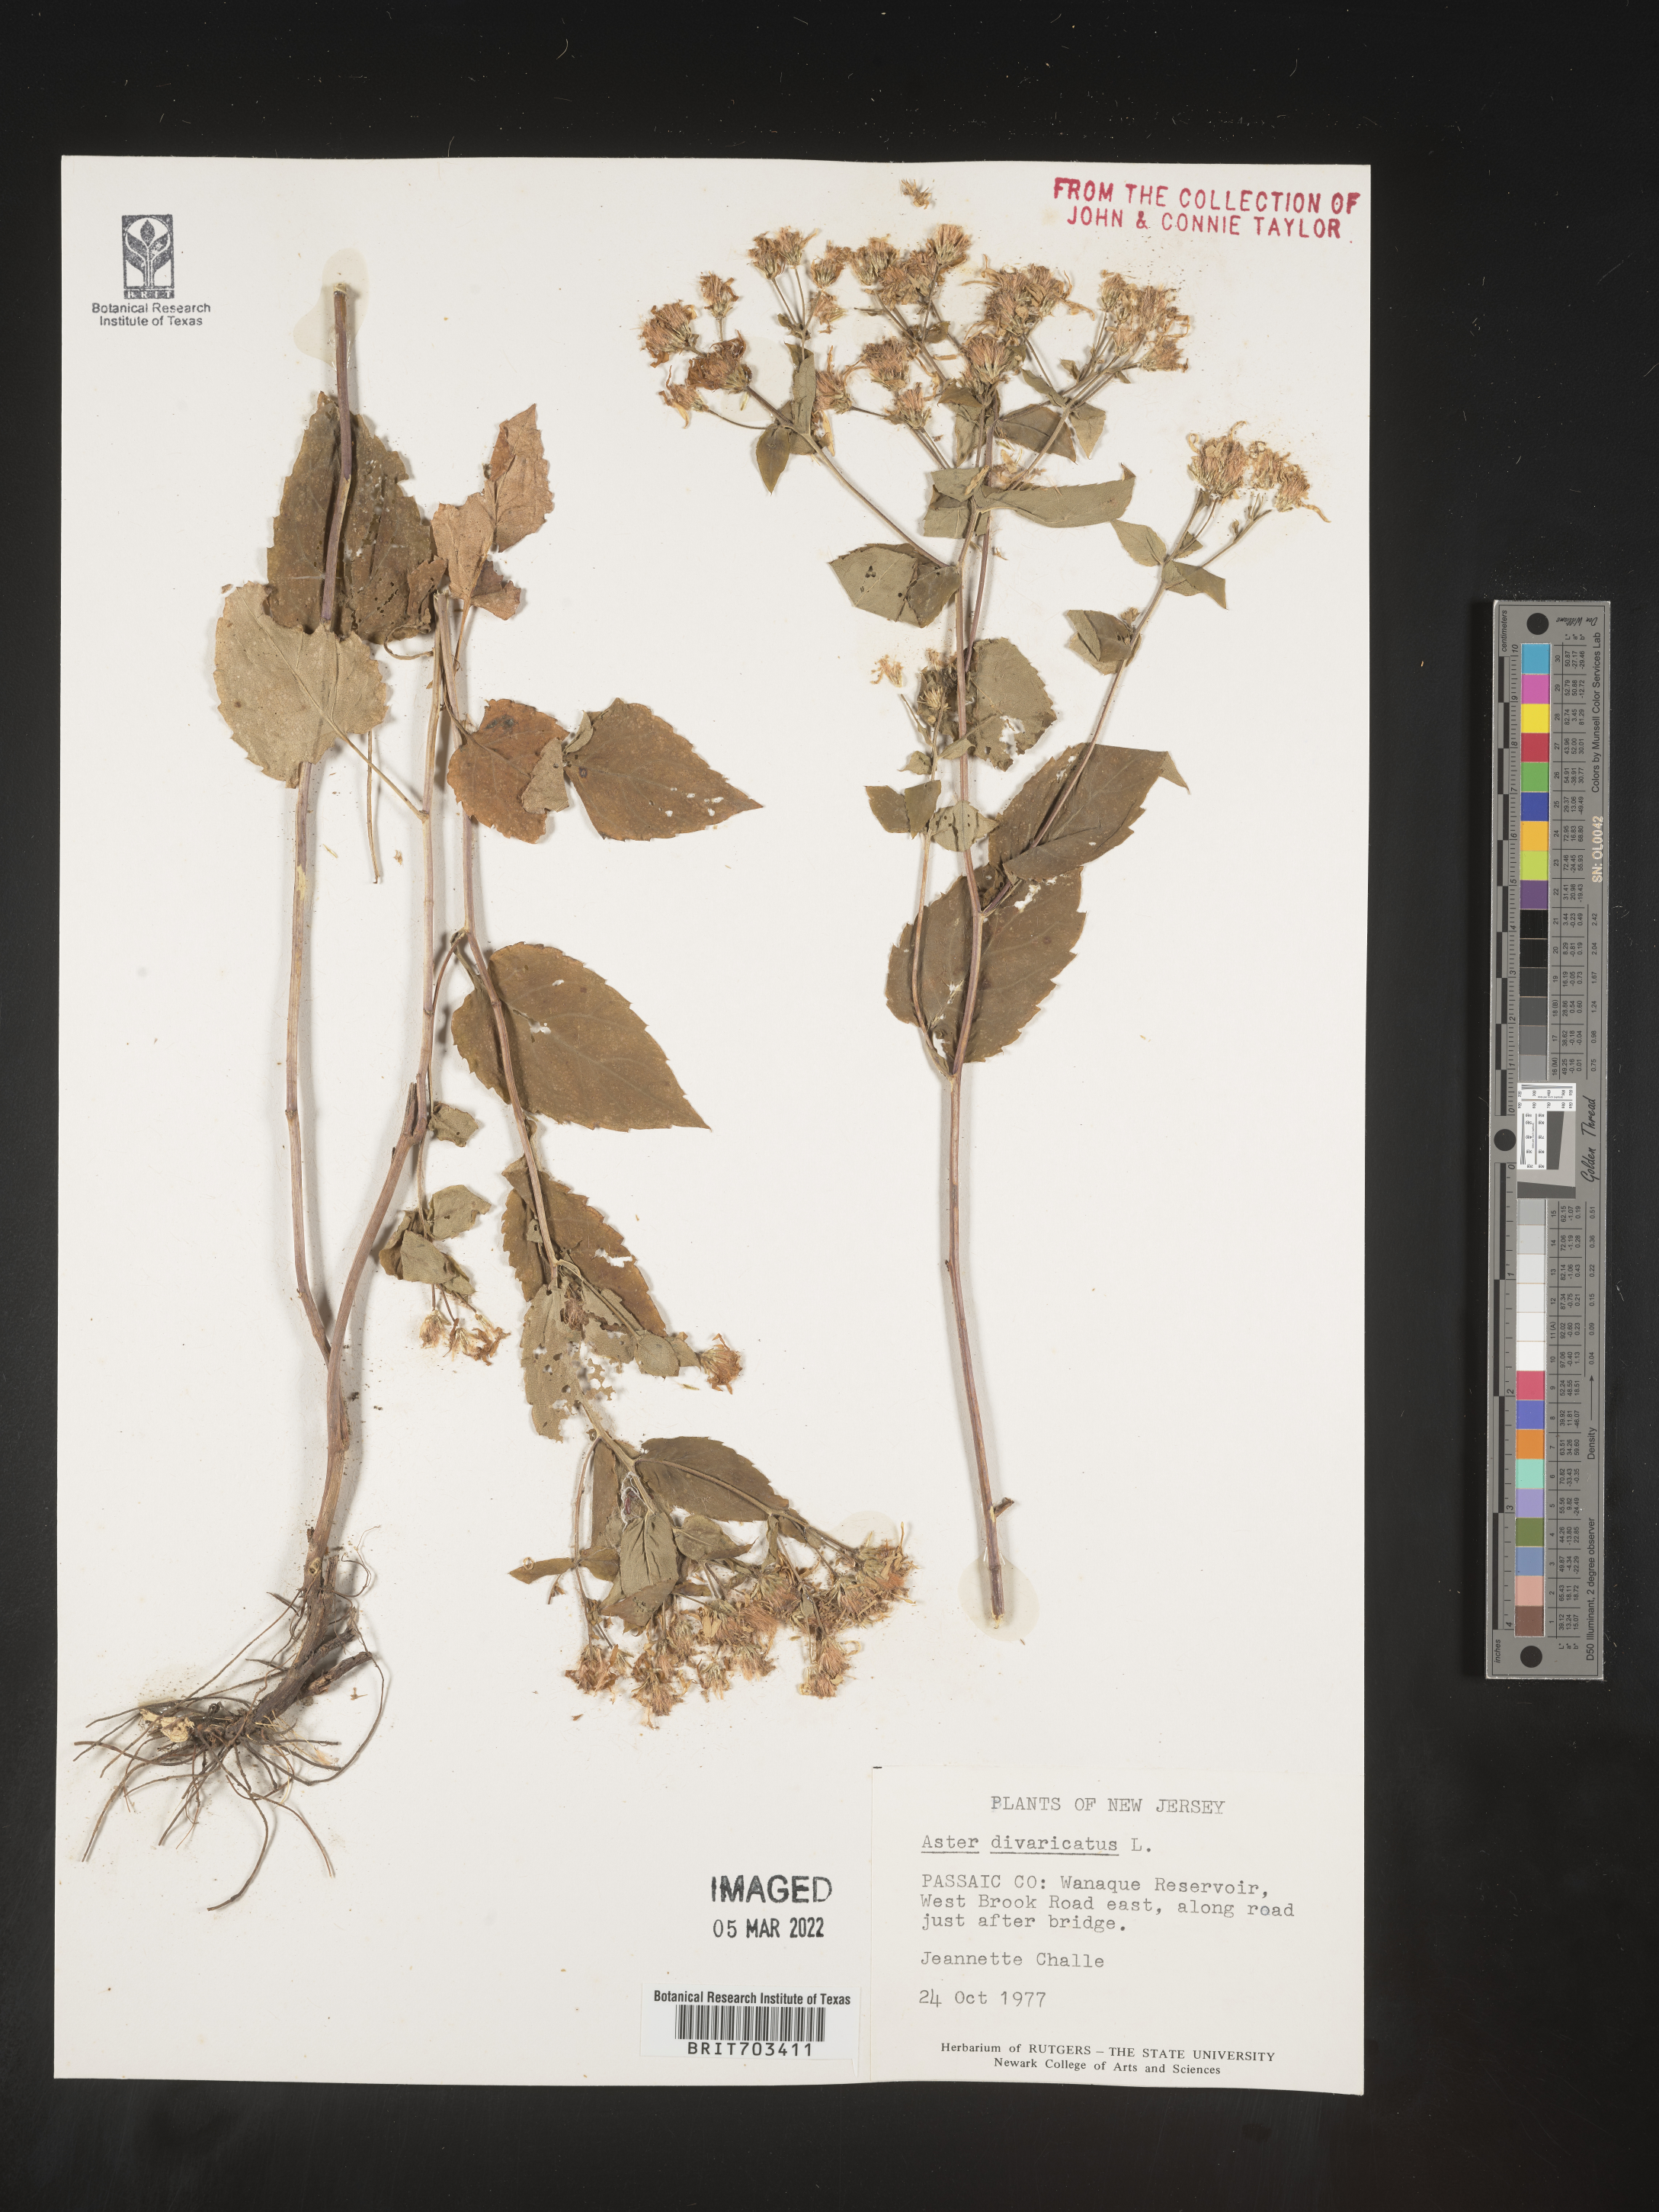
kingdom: Plantae
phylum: Tracheophyta
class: Magnoliopsida
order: Asterales
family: Asteraceae
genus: Eurybia
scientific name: Eurybia divaricata
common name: White wood aster
